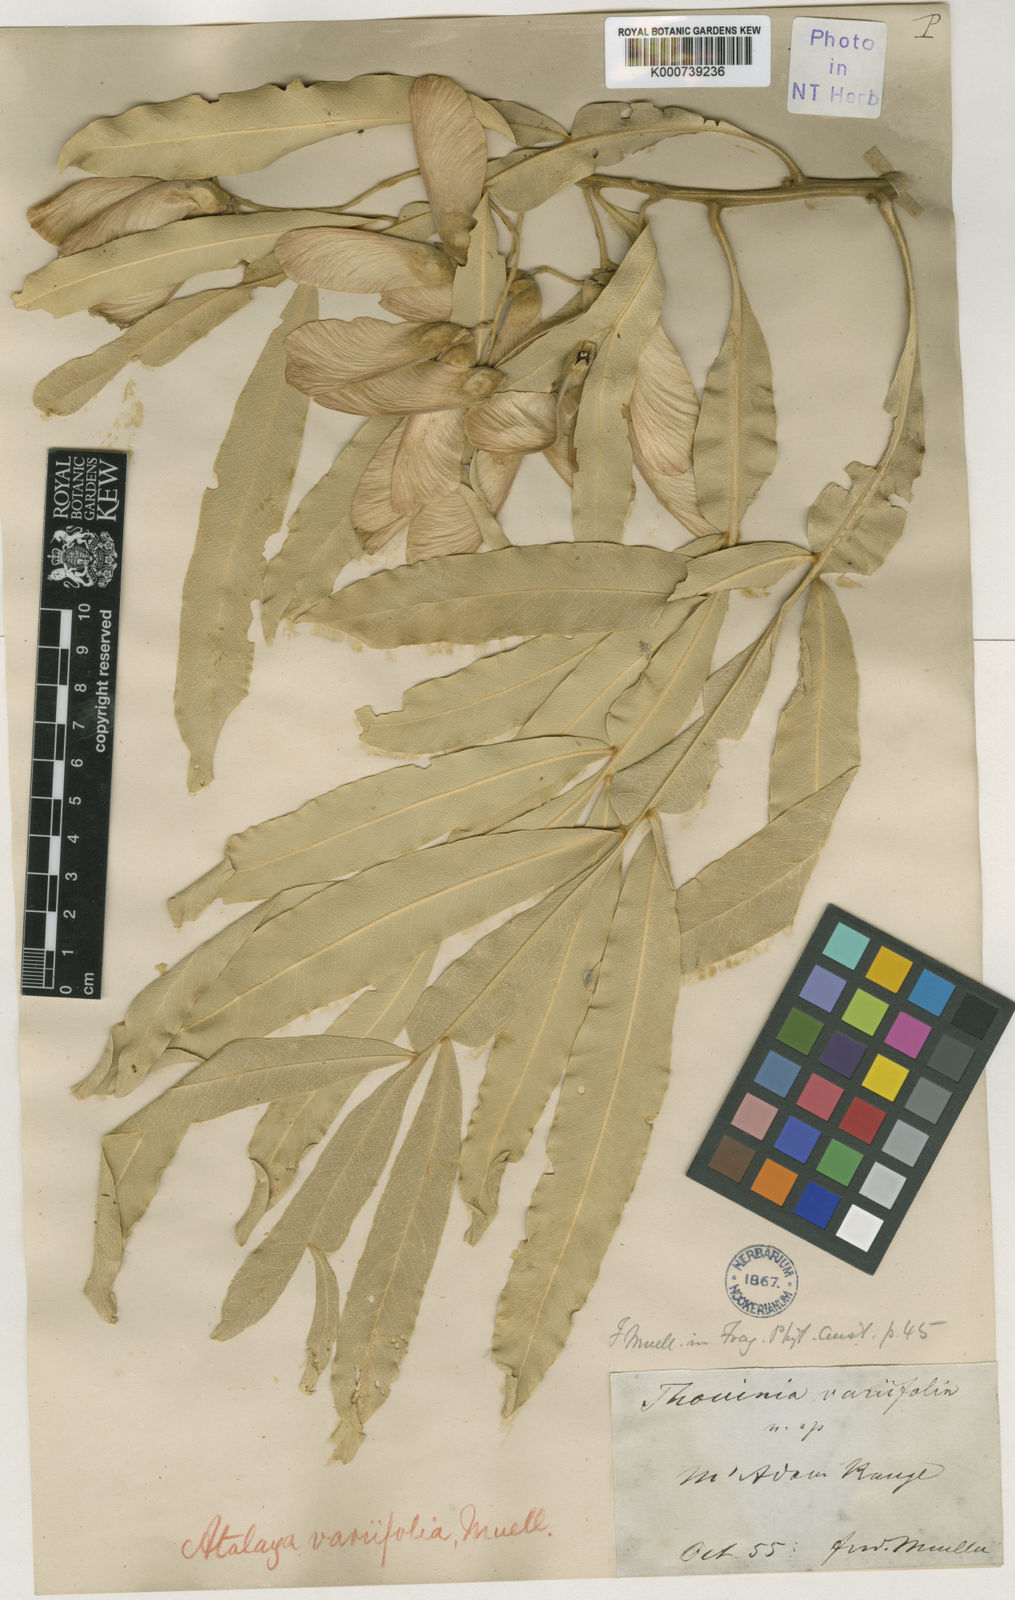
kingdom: Plantae
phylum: Tracheophyta
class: Magnoliopsida
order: Sapindales
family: Sapindaceae
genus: Atalaya
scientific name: Atalaya variifolia
